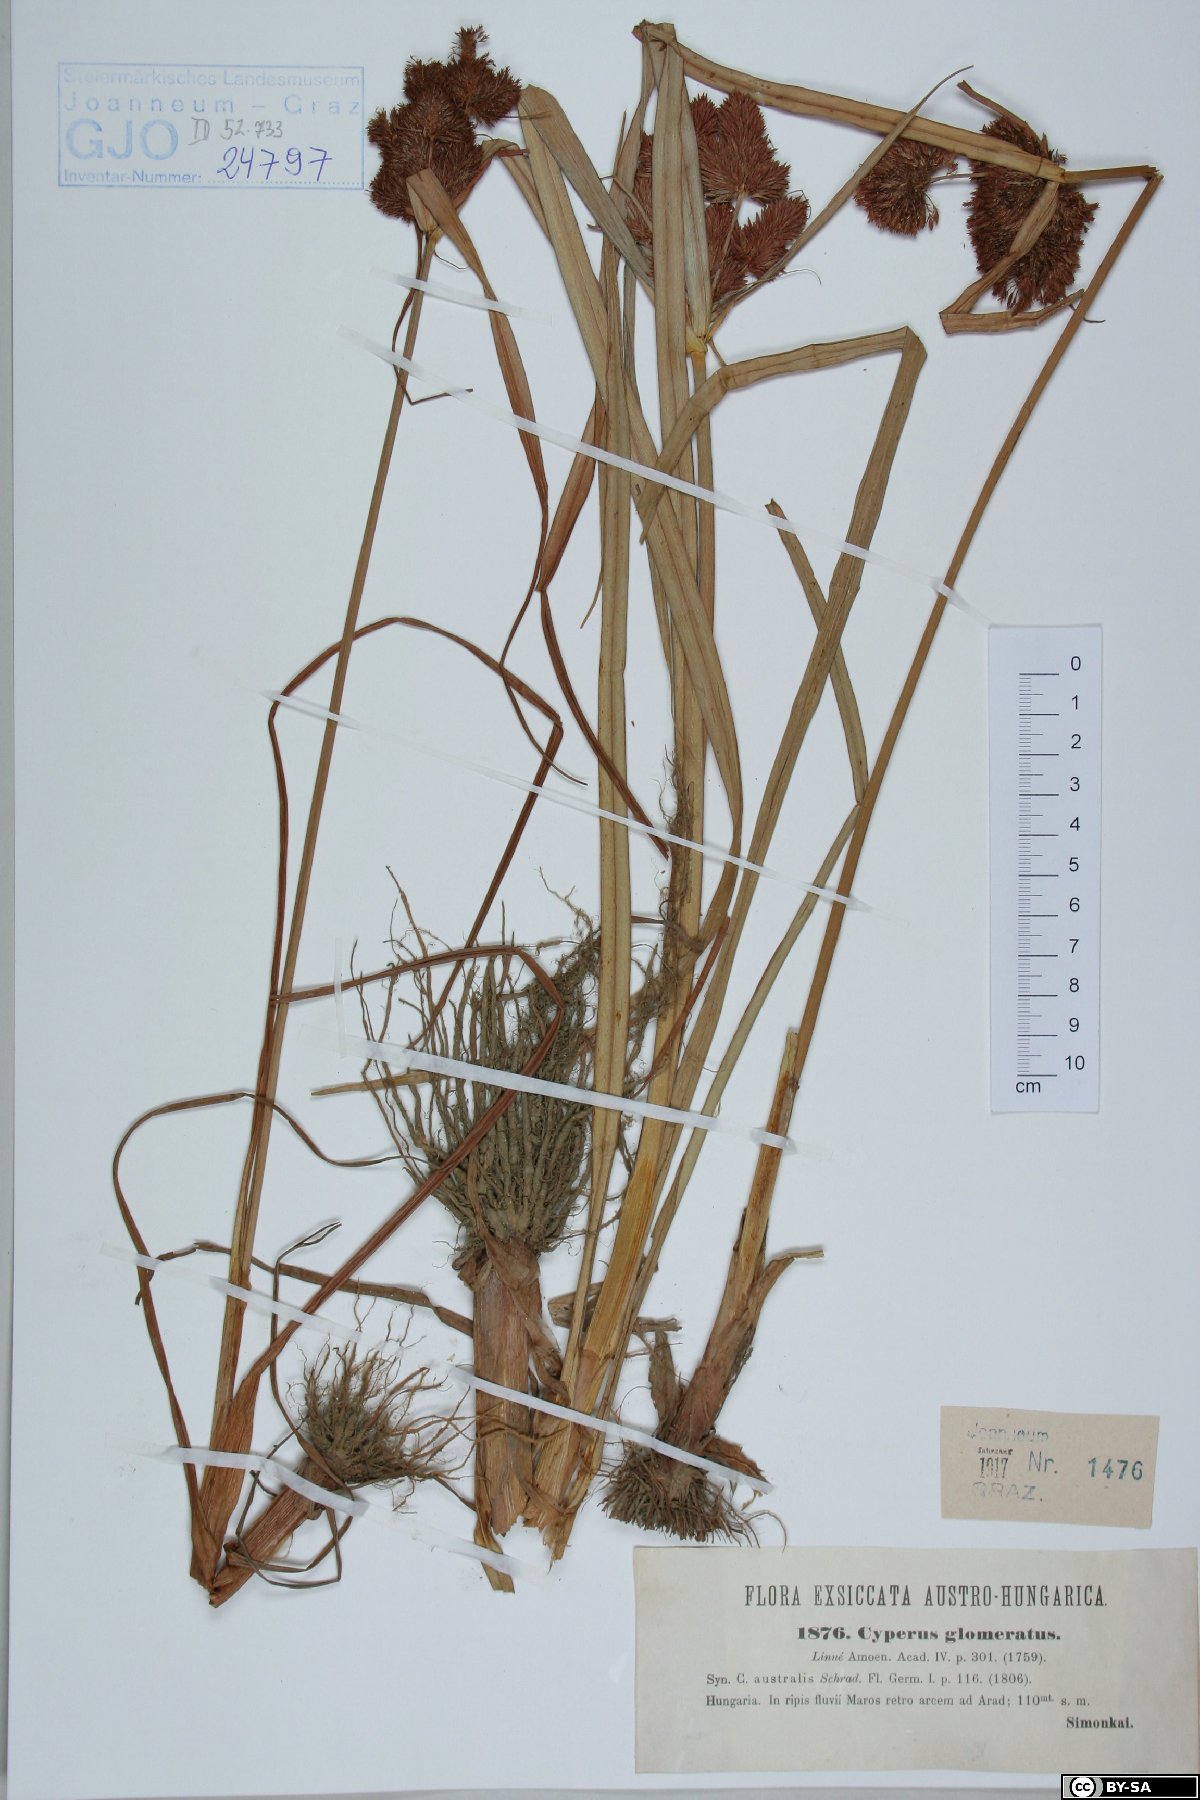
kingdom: Plantae
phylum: Tracheophyta
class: Liliopsida
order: Poales
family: Cyperaceae
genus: Cyperus
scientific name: Cyperus glomeratus
